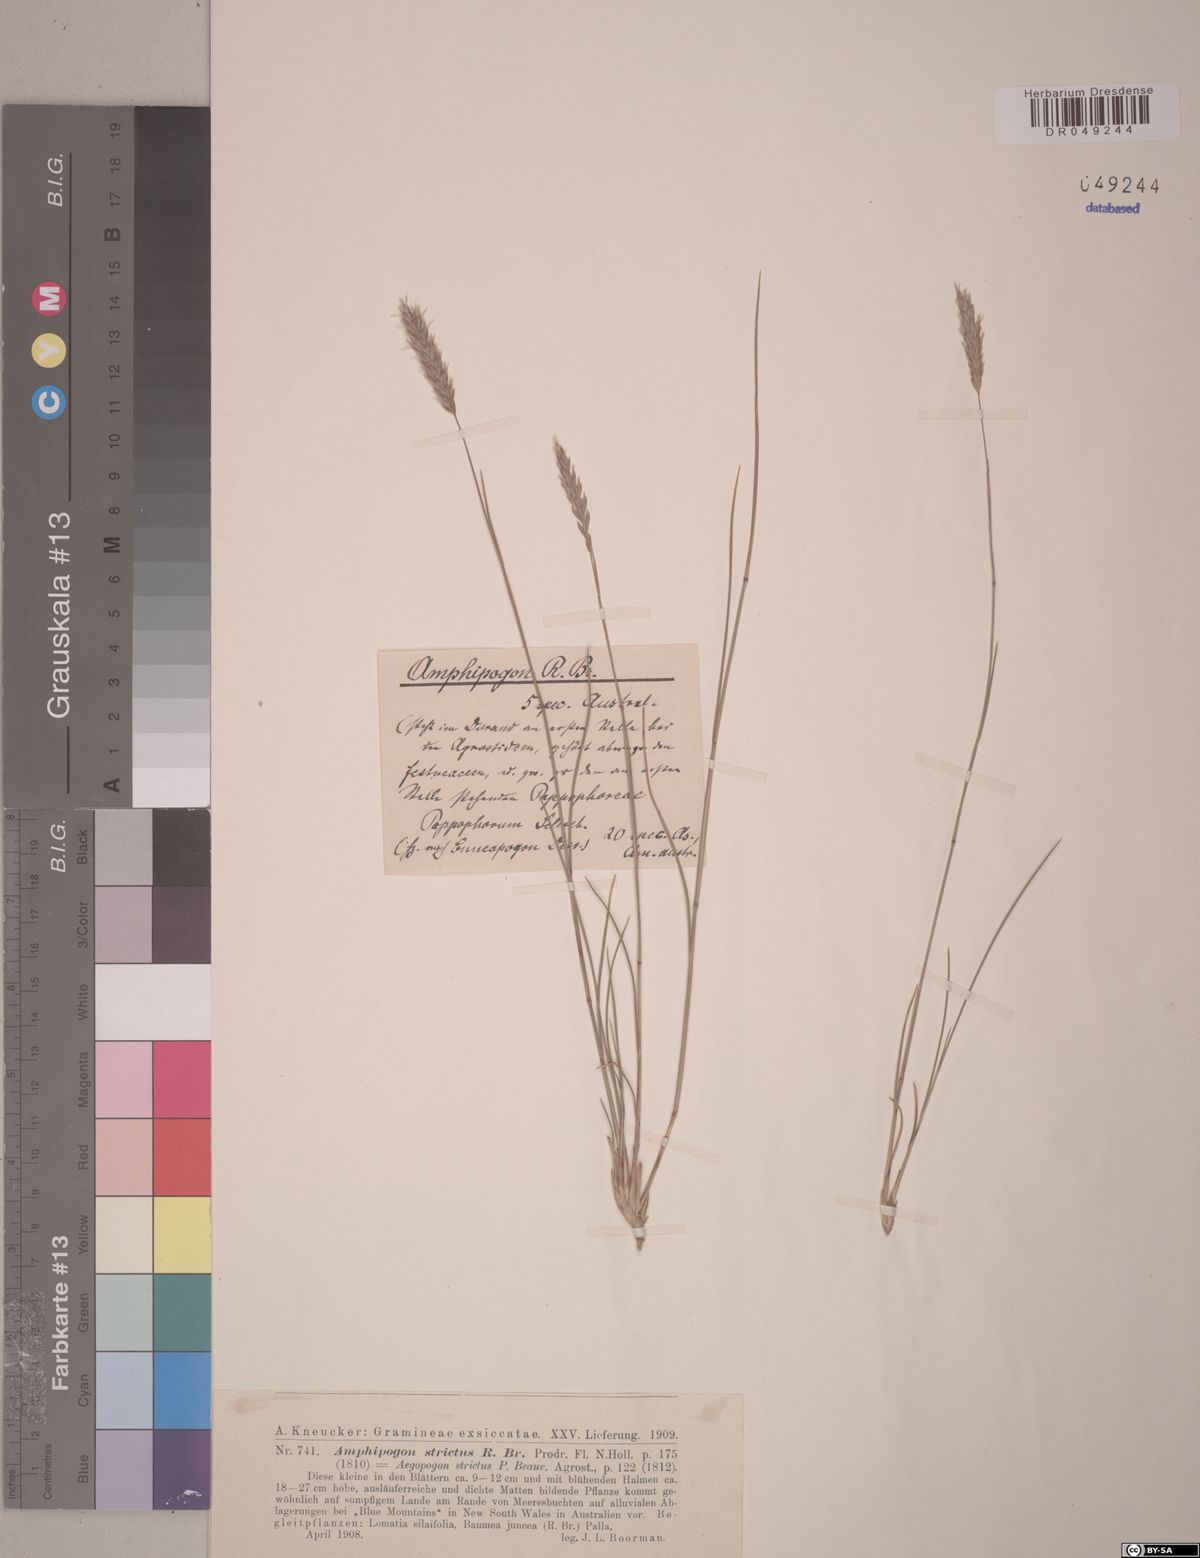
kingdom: Plantae
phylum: Tracheophyta
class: Liliopsida
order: Poales
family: Poaceae
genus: Amphipogon
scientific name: Amphipogon strictus
